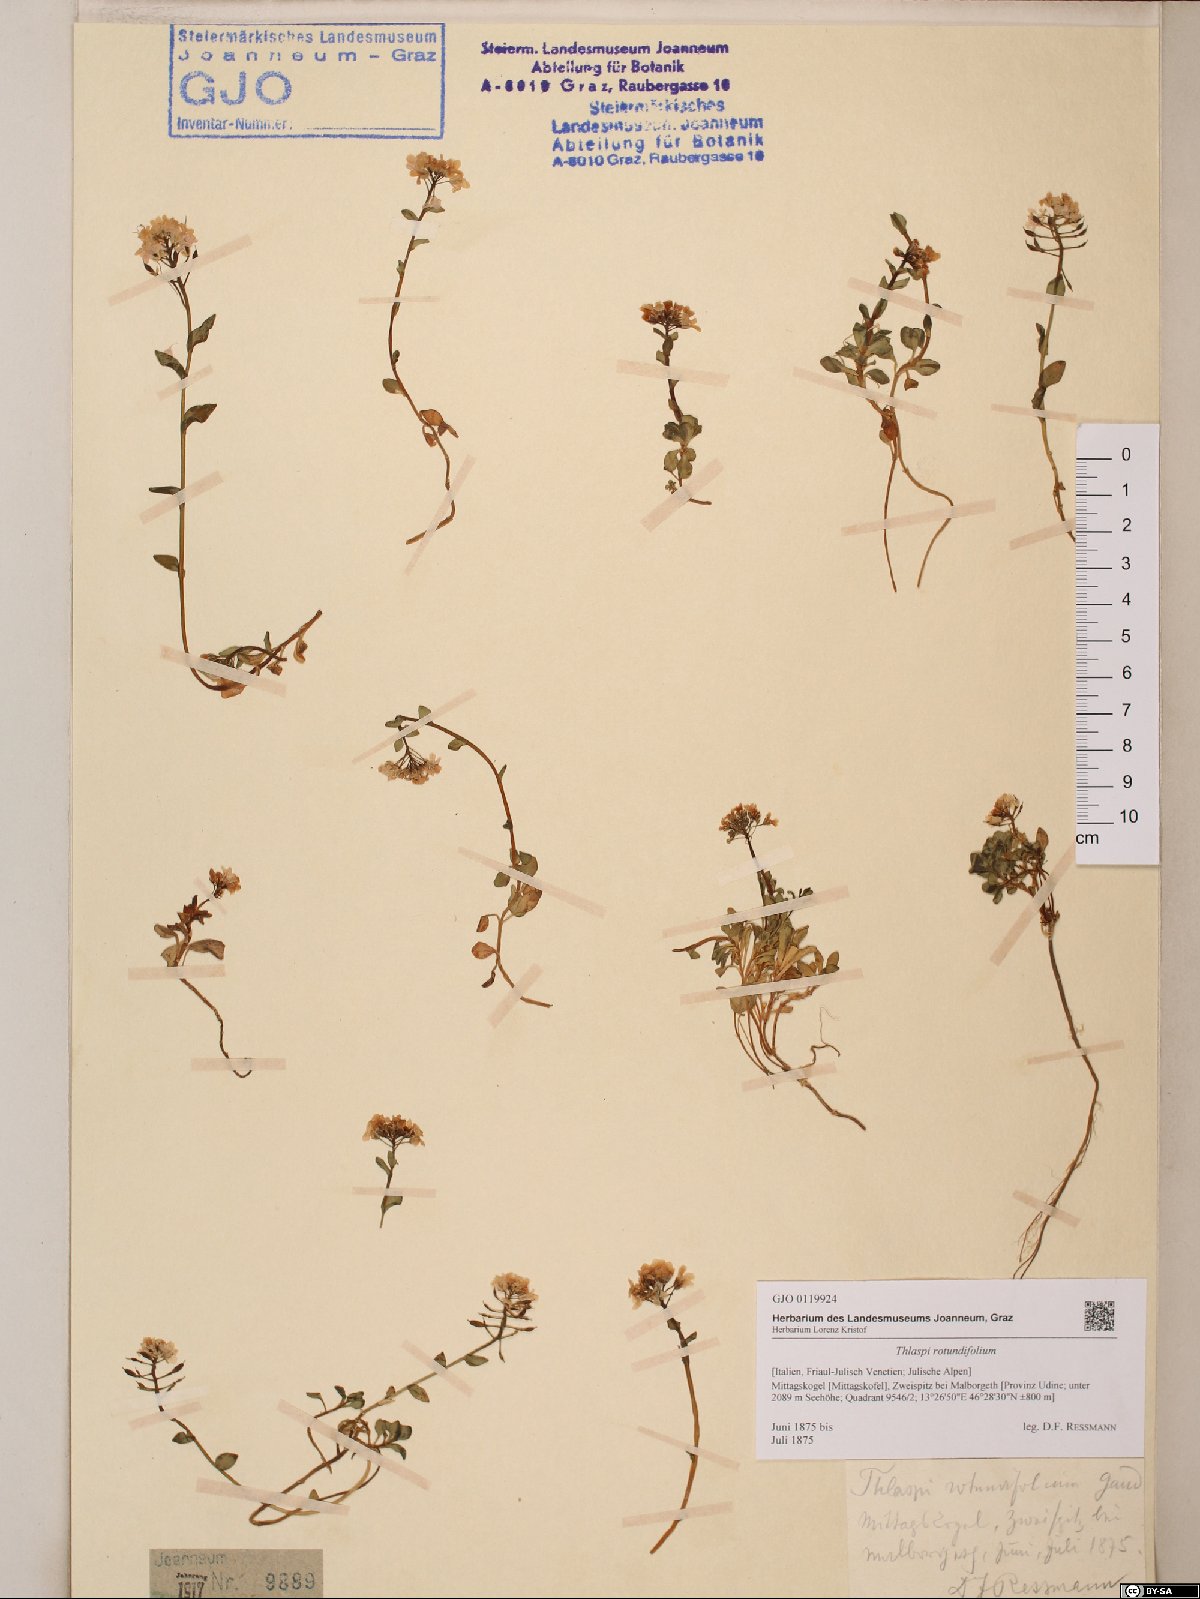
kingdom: Plantae
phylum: Tracheophyta
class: Magnoliopsida
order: Brassicales
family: Brassicaceae
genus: Noccaea
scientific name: Noccaea rotundifolia
